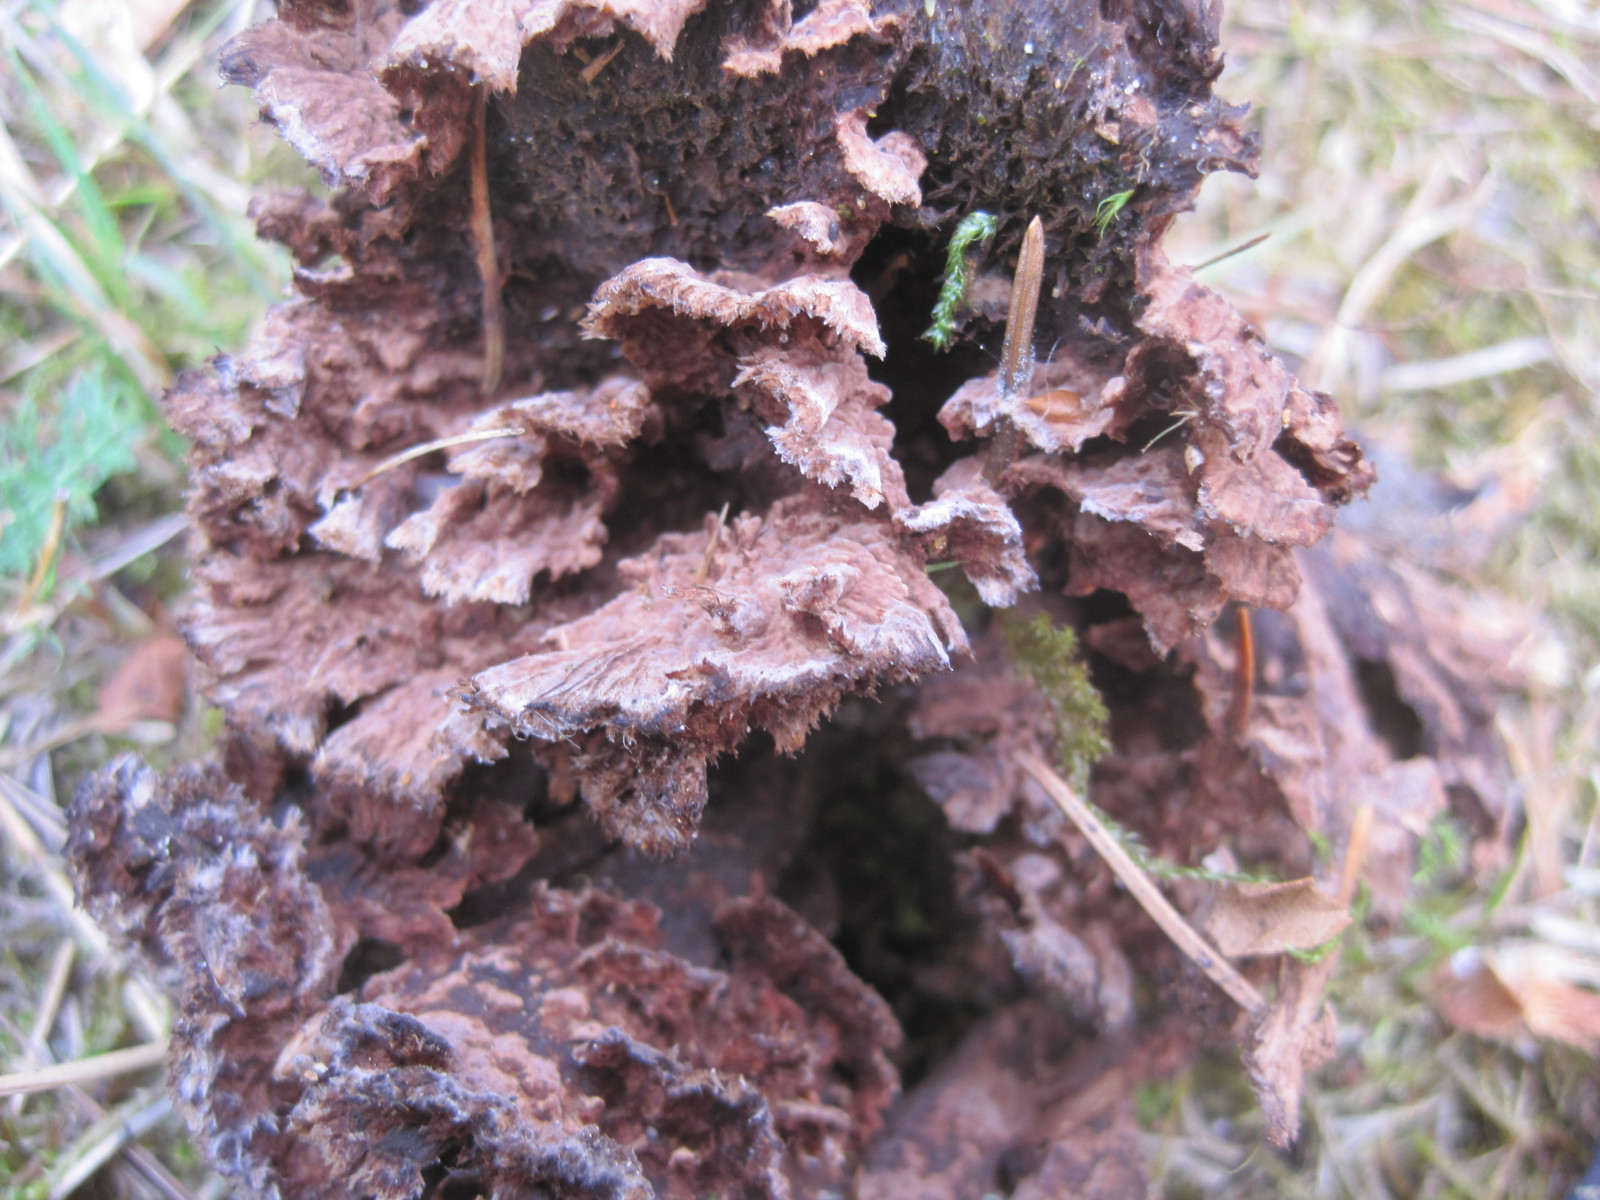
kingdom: Fungi
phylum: Basidiomycota
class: Agaricomycetes
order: Thelephorales
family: Thelephoraceae
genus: Thelephora
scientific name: Thelephora terrestris
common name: fliget frynsesvamp
